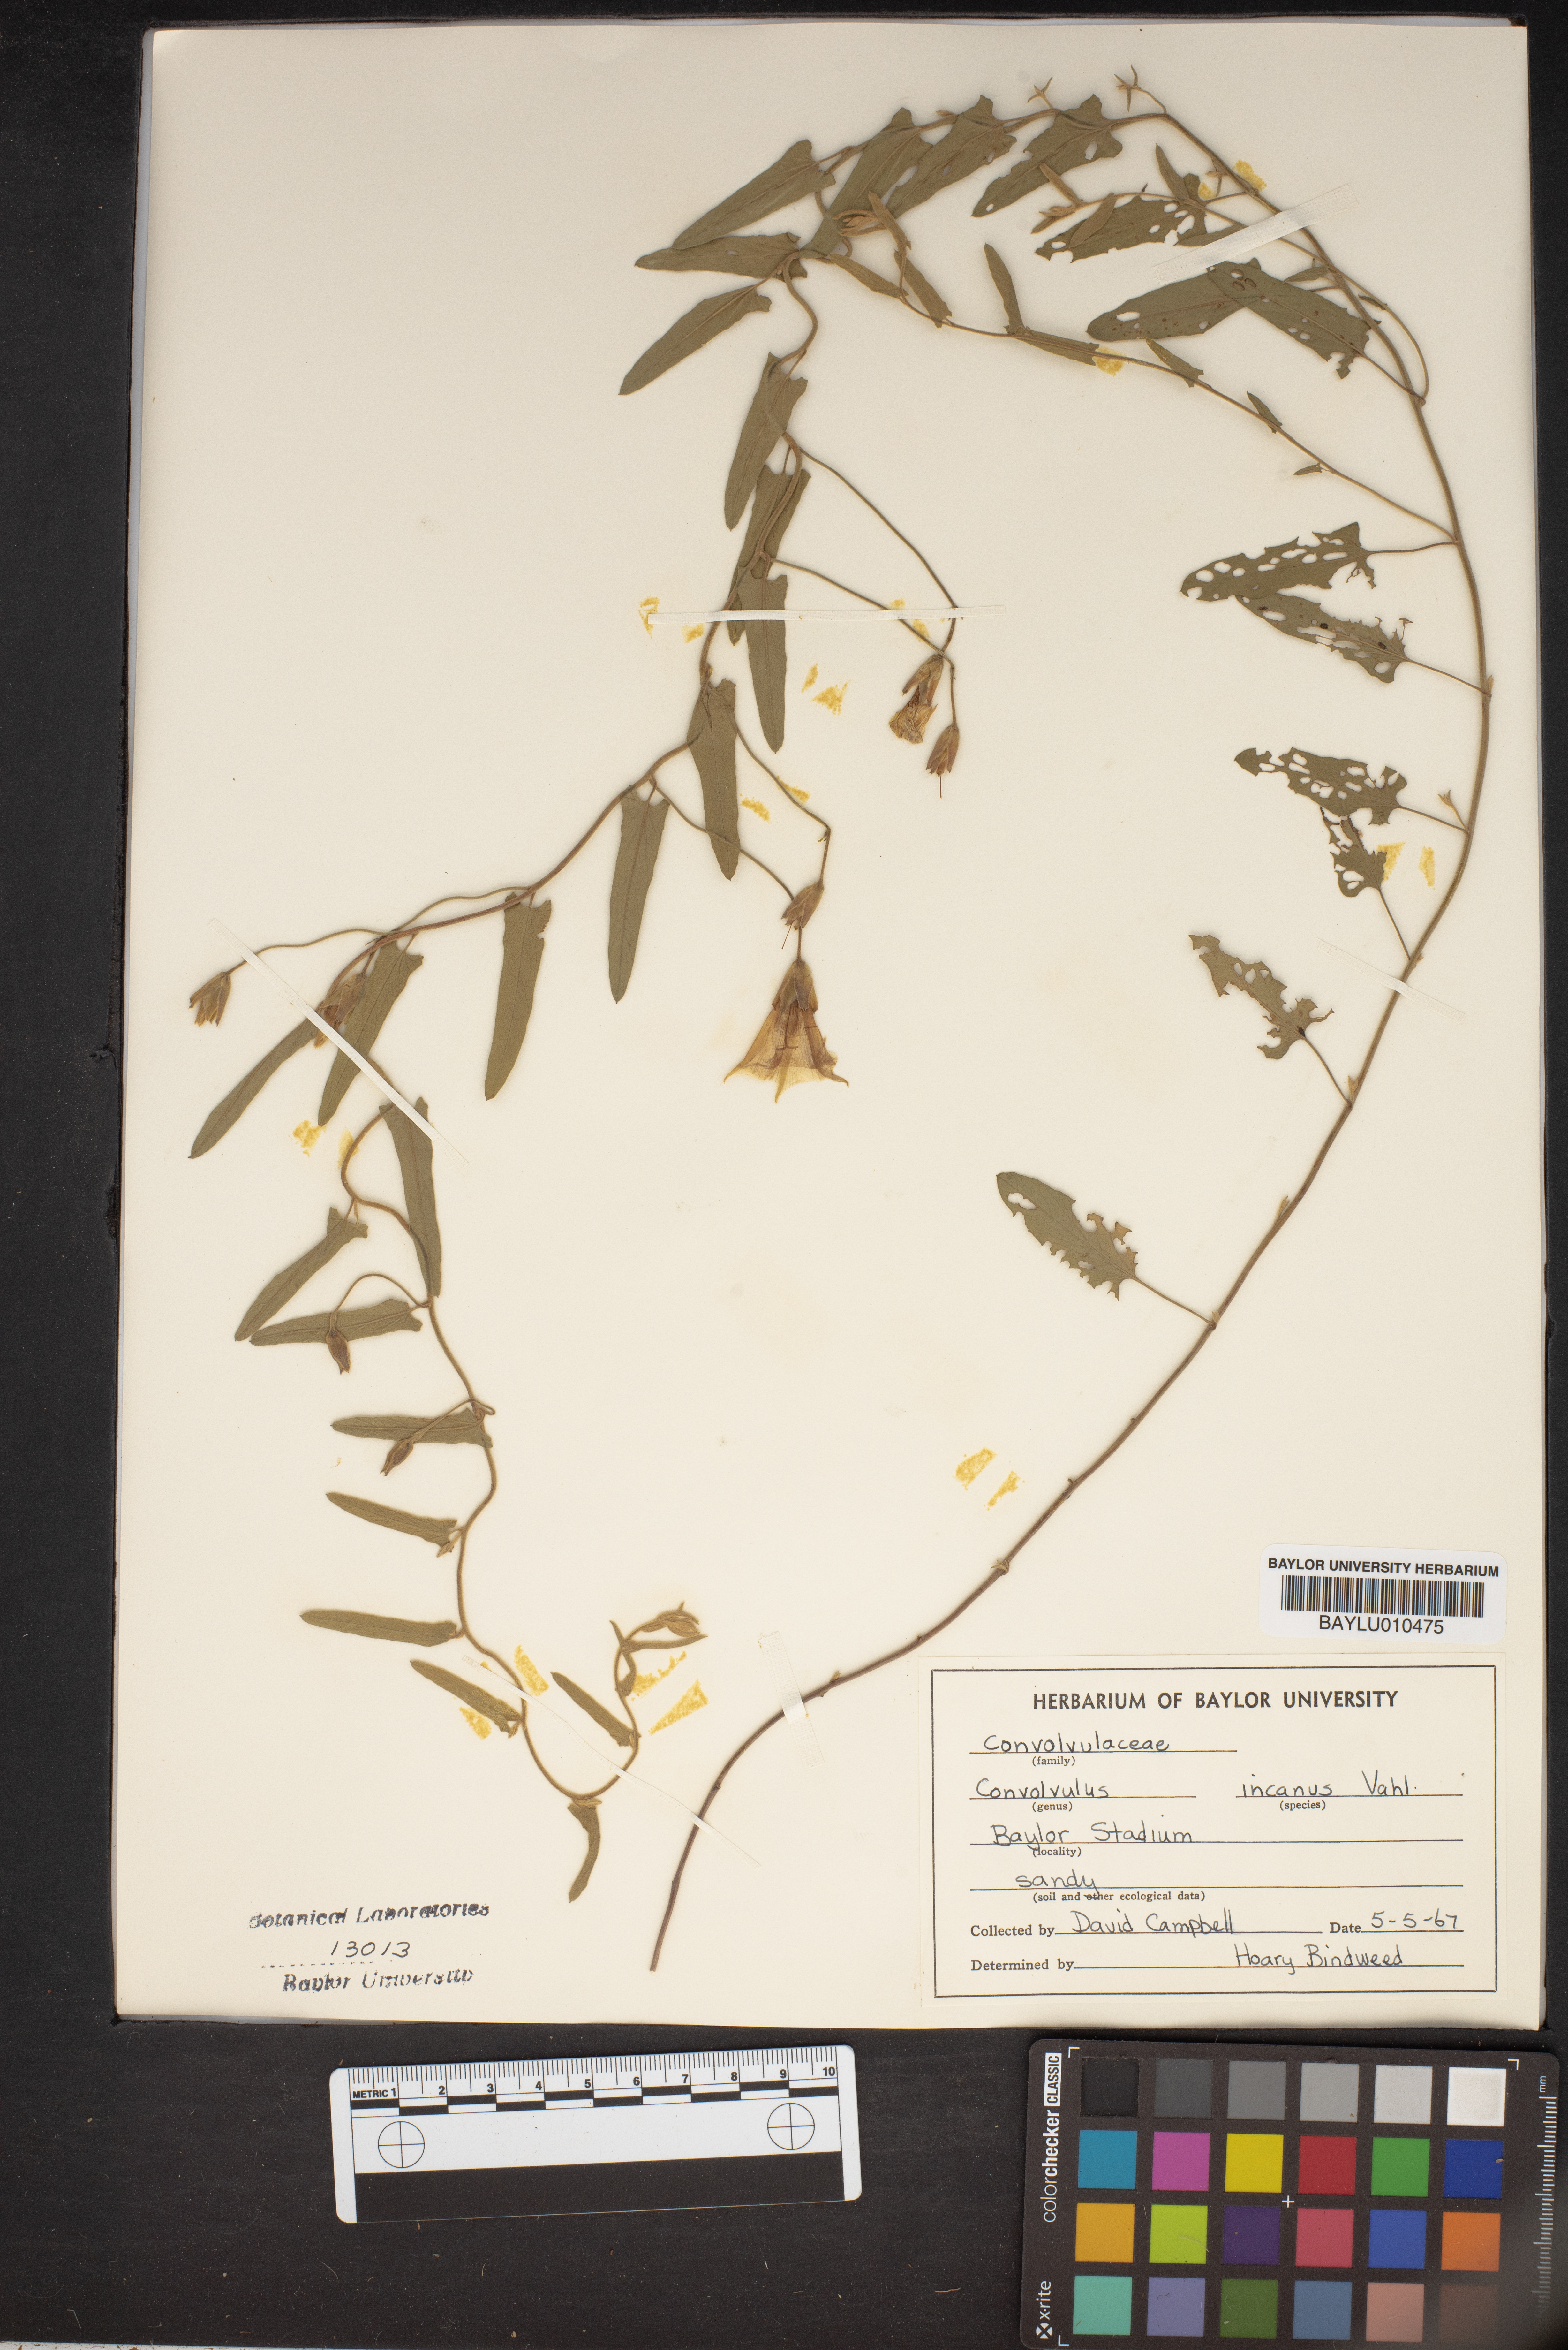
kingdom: Plantae
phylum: Tracheophyta
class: Magnoliopsida
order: Solanales
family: Convolvulaceae
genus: Convolvulus
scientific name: Convolvulus hermanniae
